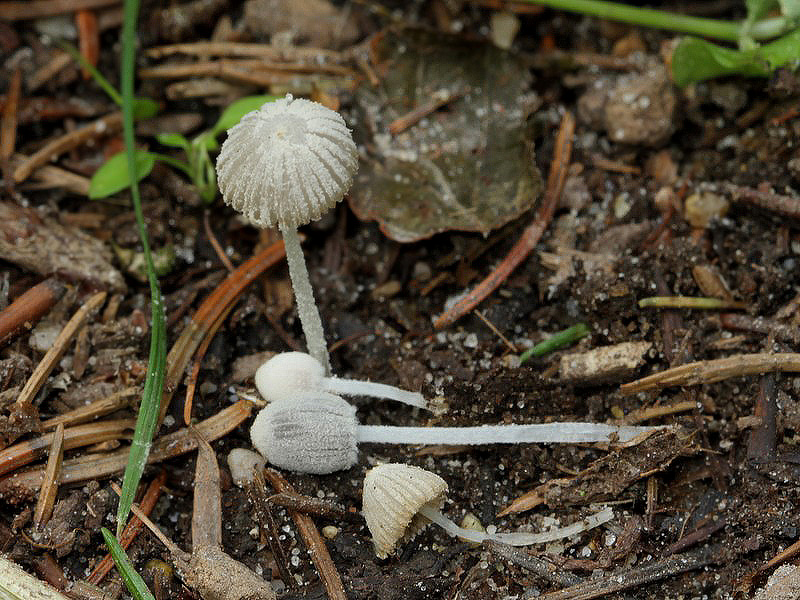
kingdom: Fungi
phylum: Basidiomycota
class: Agaricomycetes
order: Agaricales
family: Psathyrellaceae
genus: Coprinopsis
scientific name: Coprinopsis candidata
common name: hvidklædt blækhat
